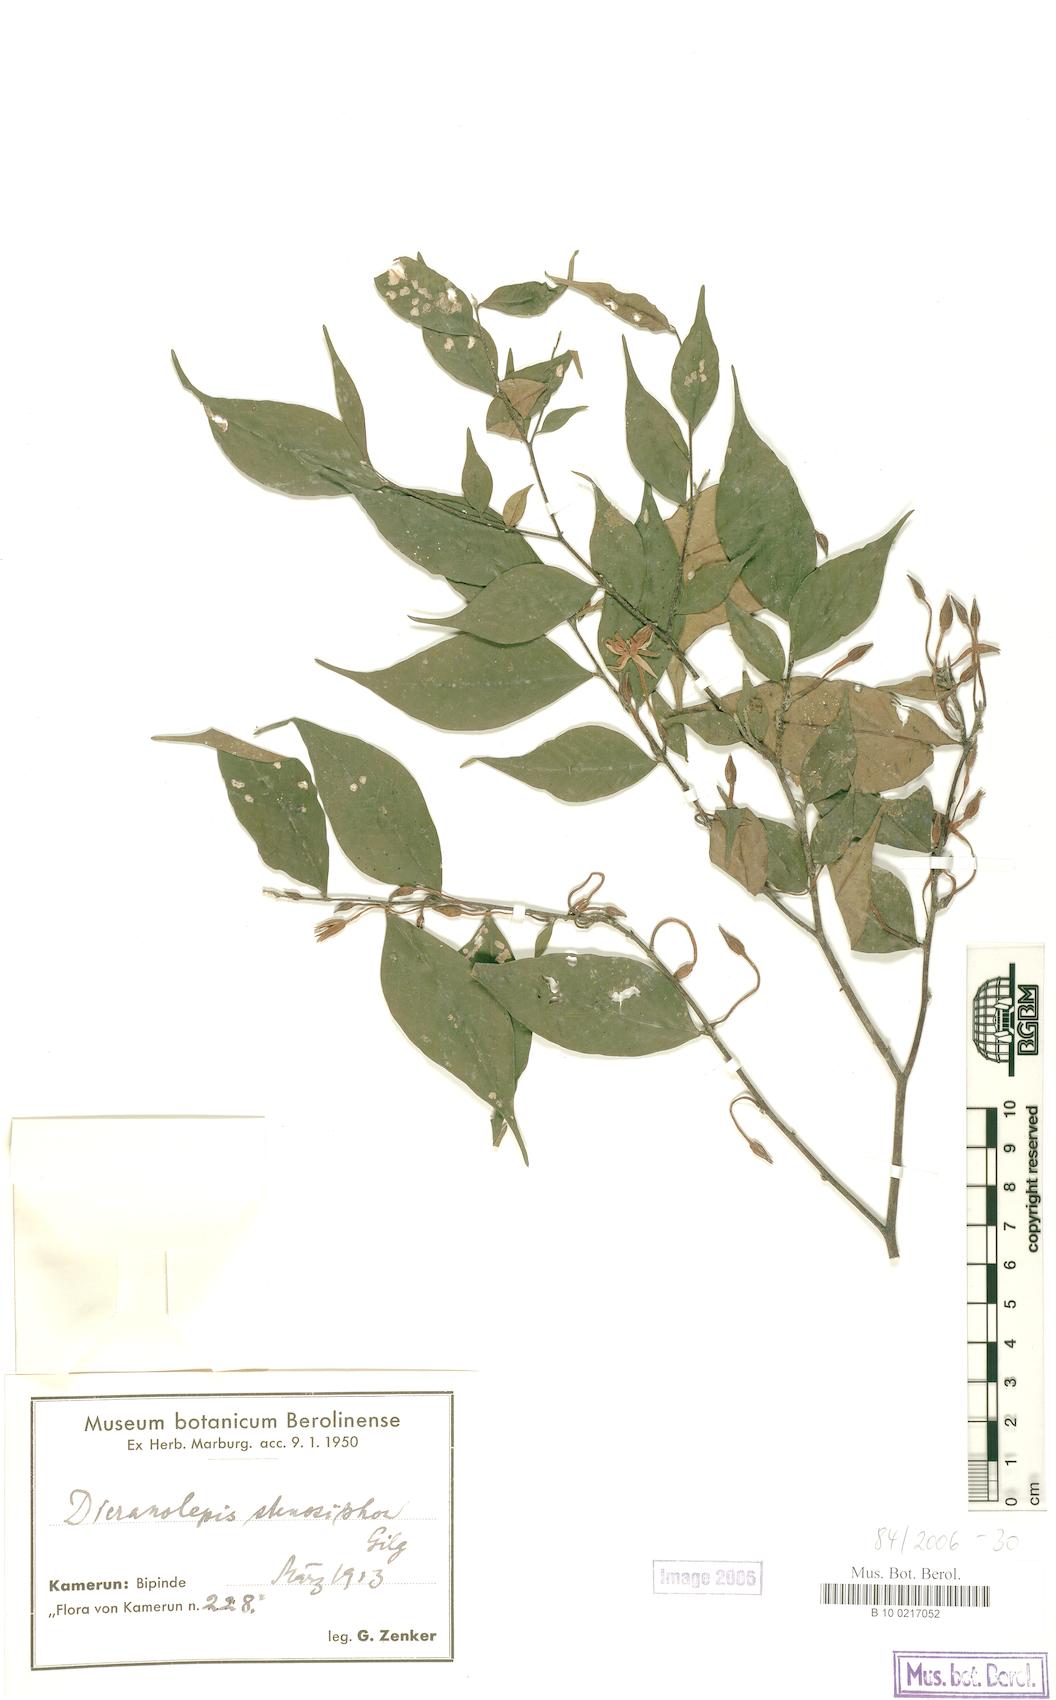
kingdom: Plantae
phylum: Tracheophyta
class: Magnoliopsida
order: Malvales
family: Thymelaeaceae
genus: Dicranolepis
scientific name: Dicranolepis disticha
